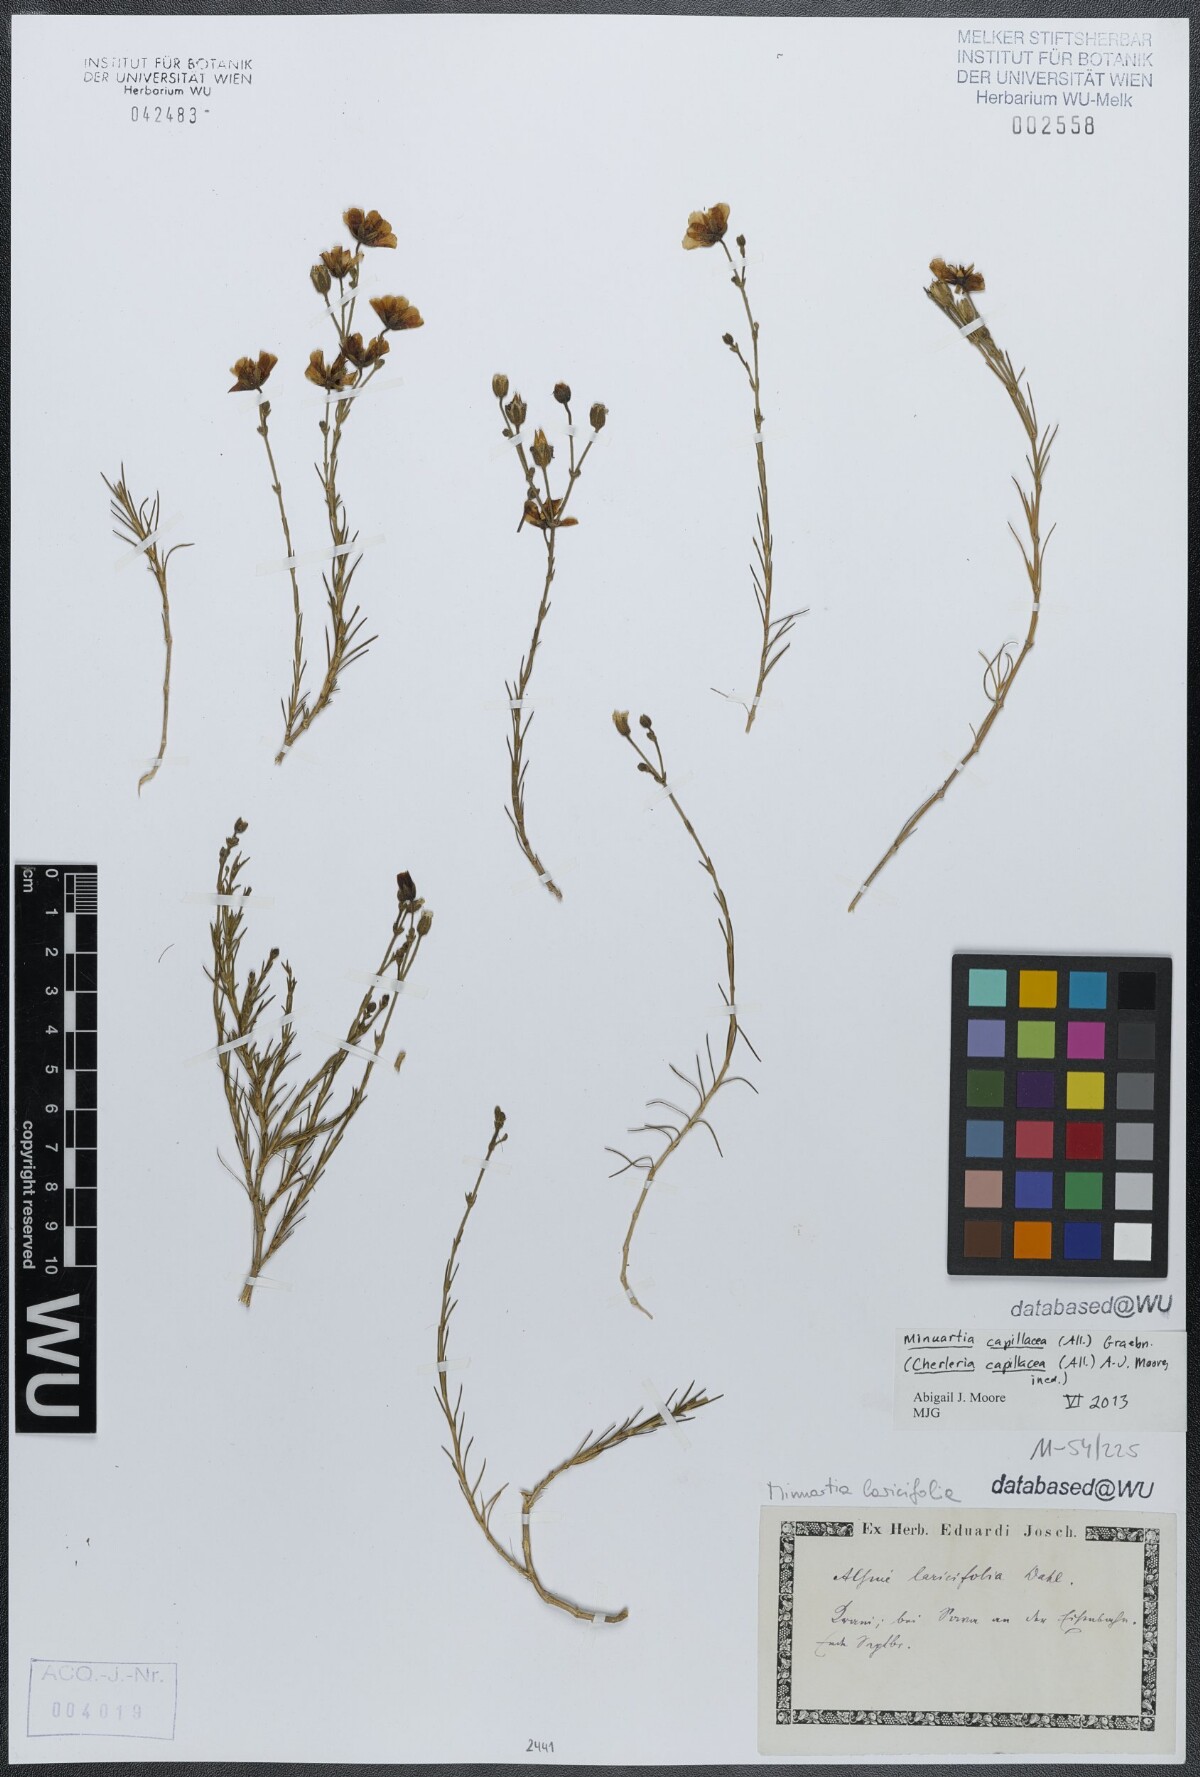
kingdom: Plantae
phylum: Tracheophyta
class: Magnoliopsida
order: Caryophyllales
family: Caryophyllaceae
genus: Cherleria
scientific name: Cherleria capillacea
